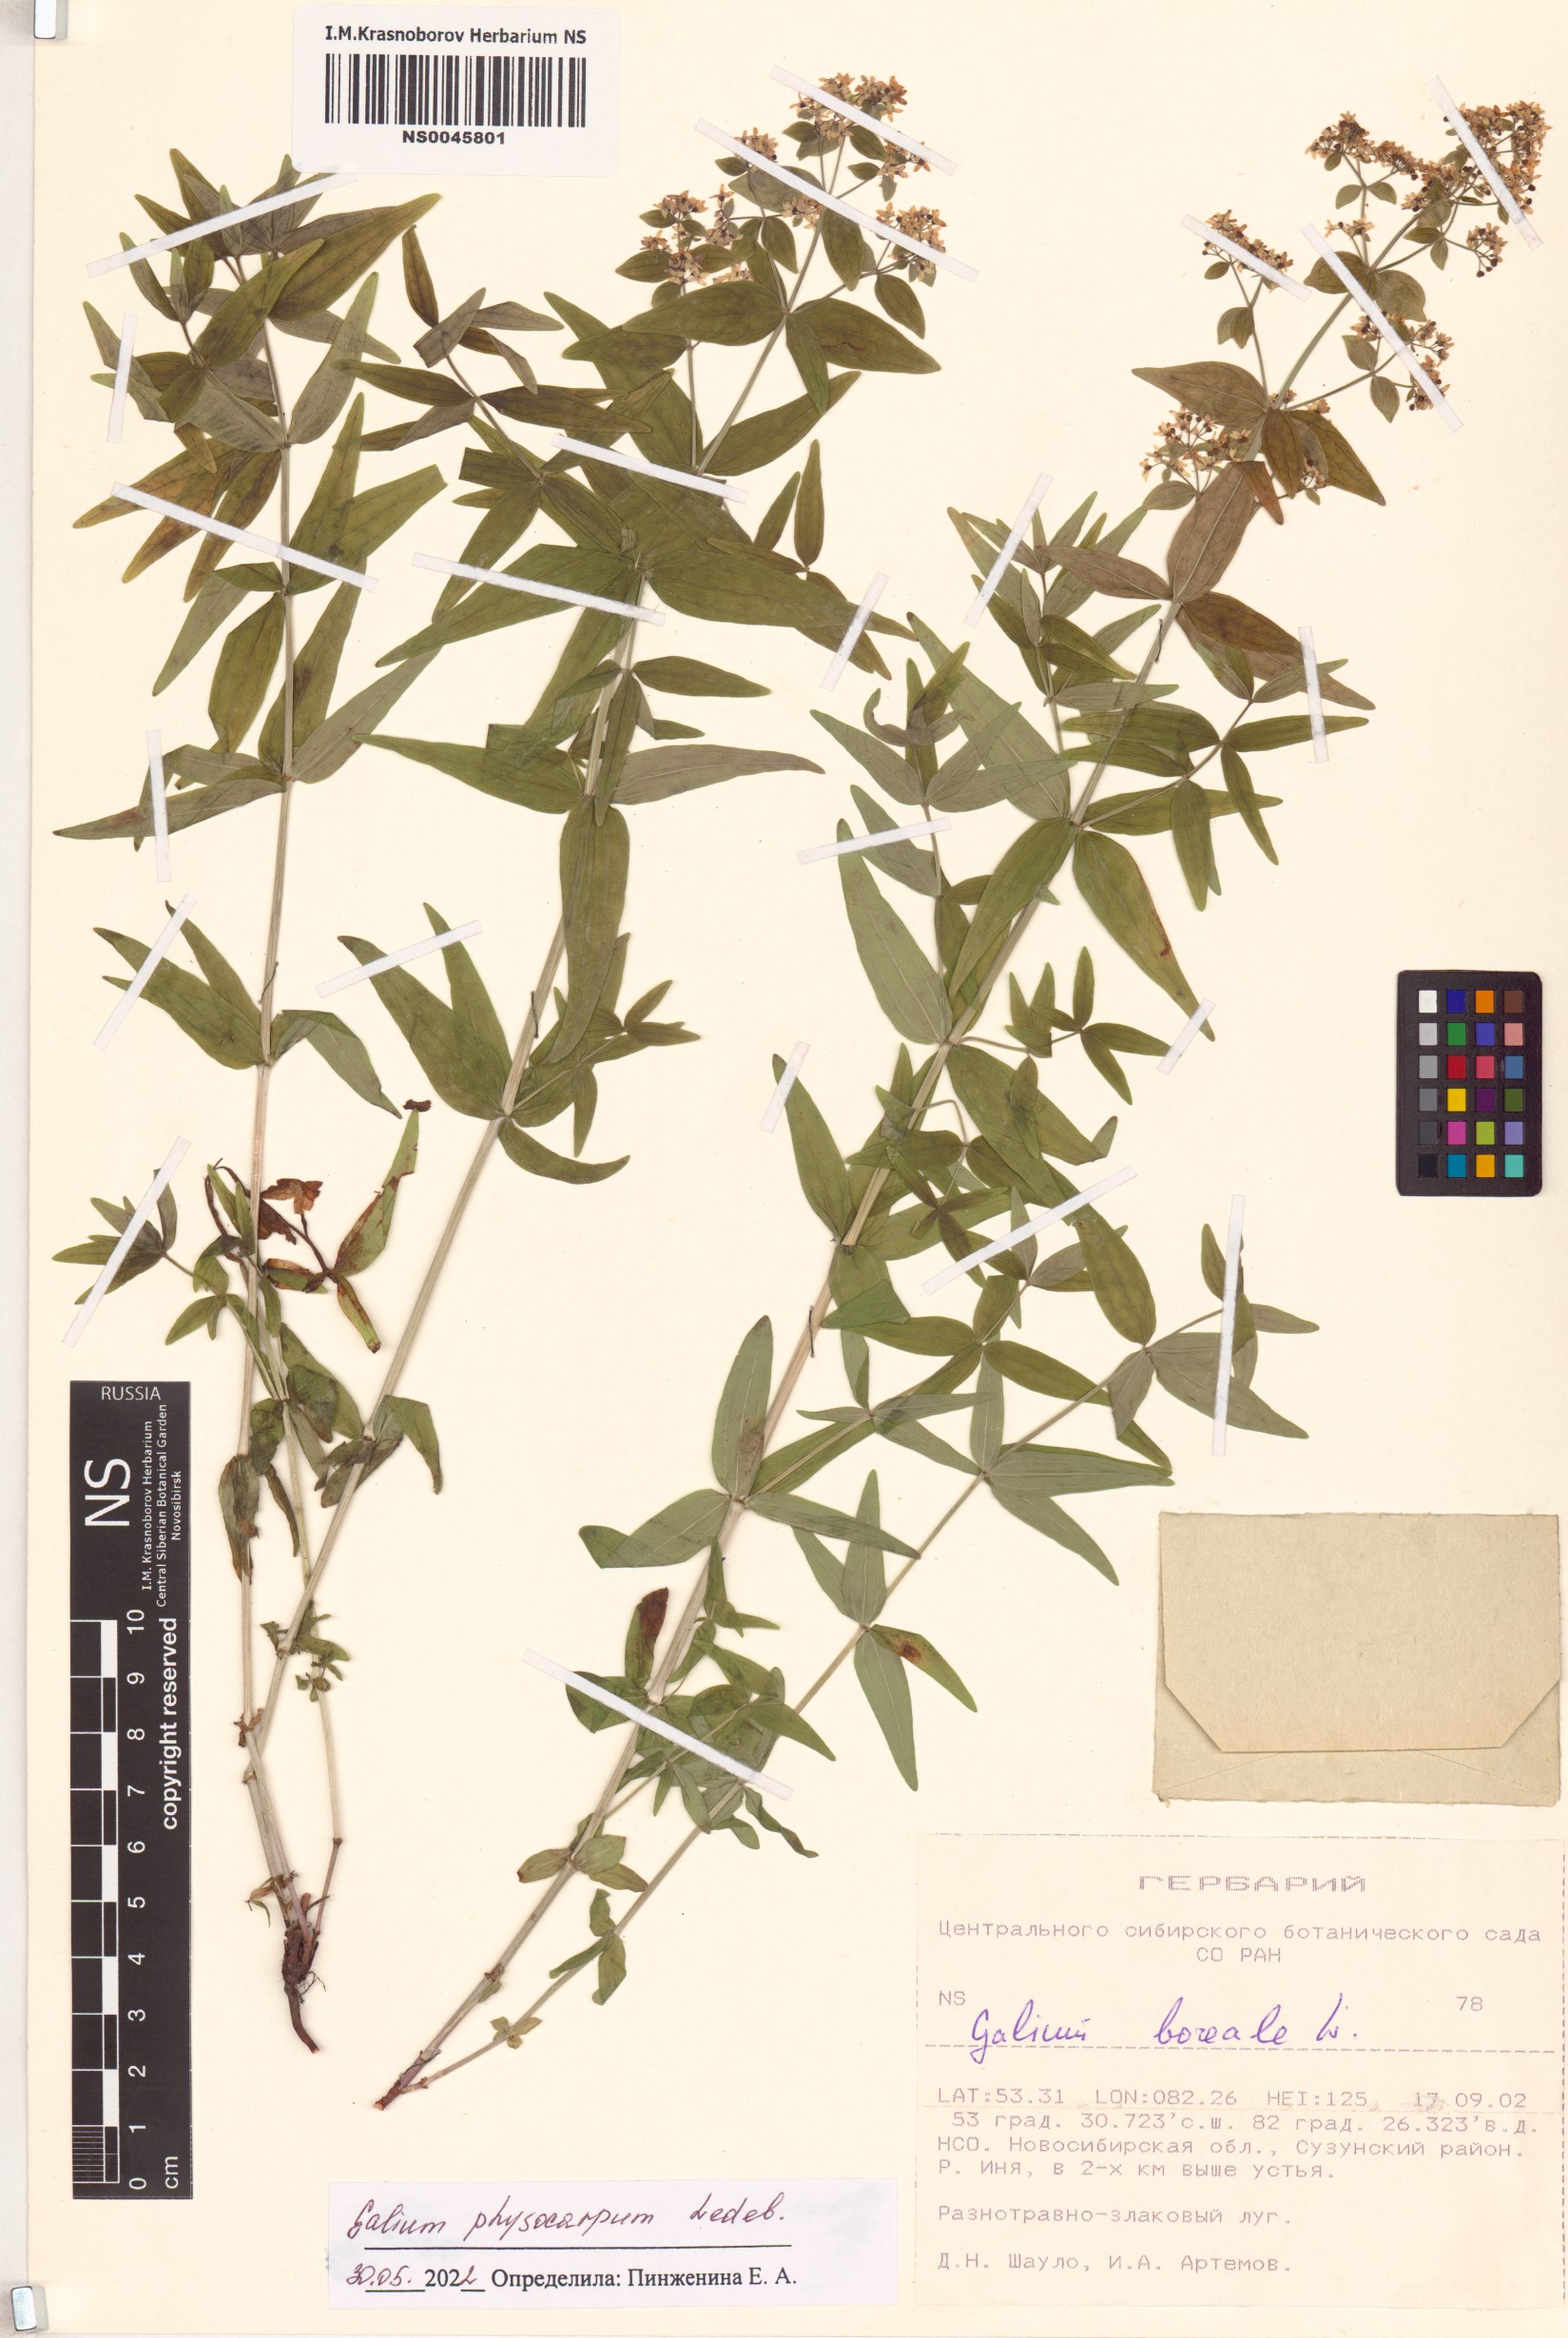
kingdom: Plantae
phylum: Tracheophyta
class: Magnoliopsida
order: Gentianales
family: Rubiaceae
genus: Galium
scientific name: Galium rubioides
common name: European bedstraw
